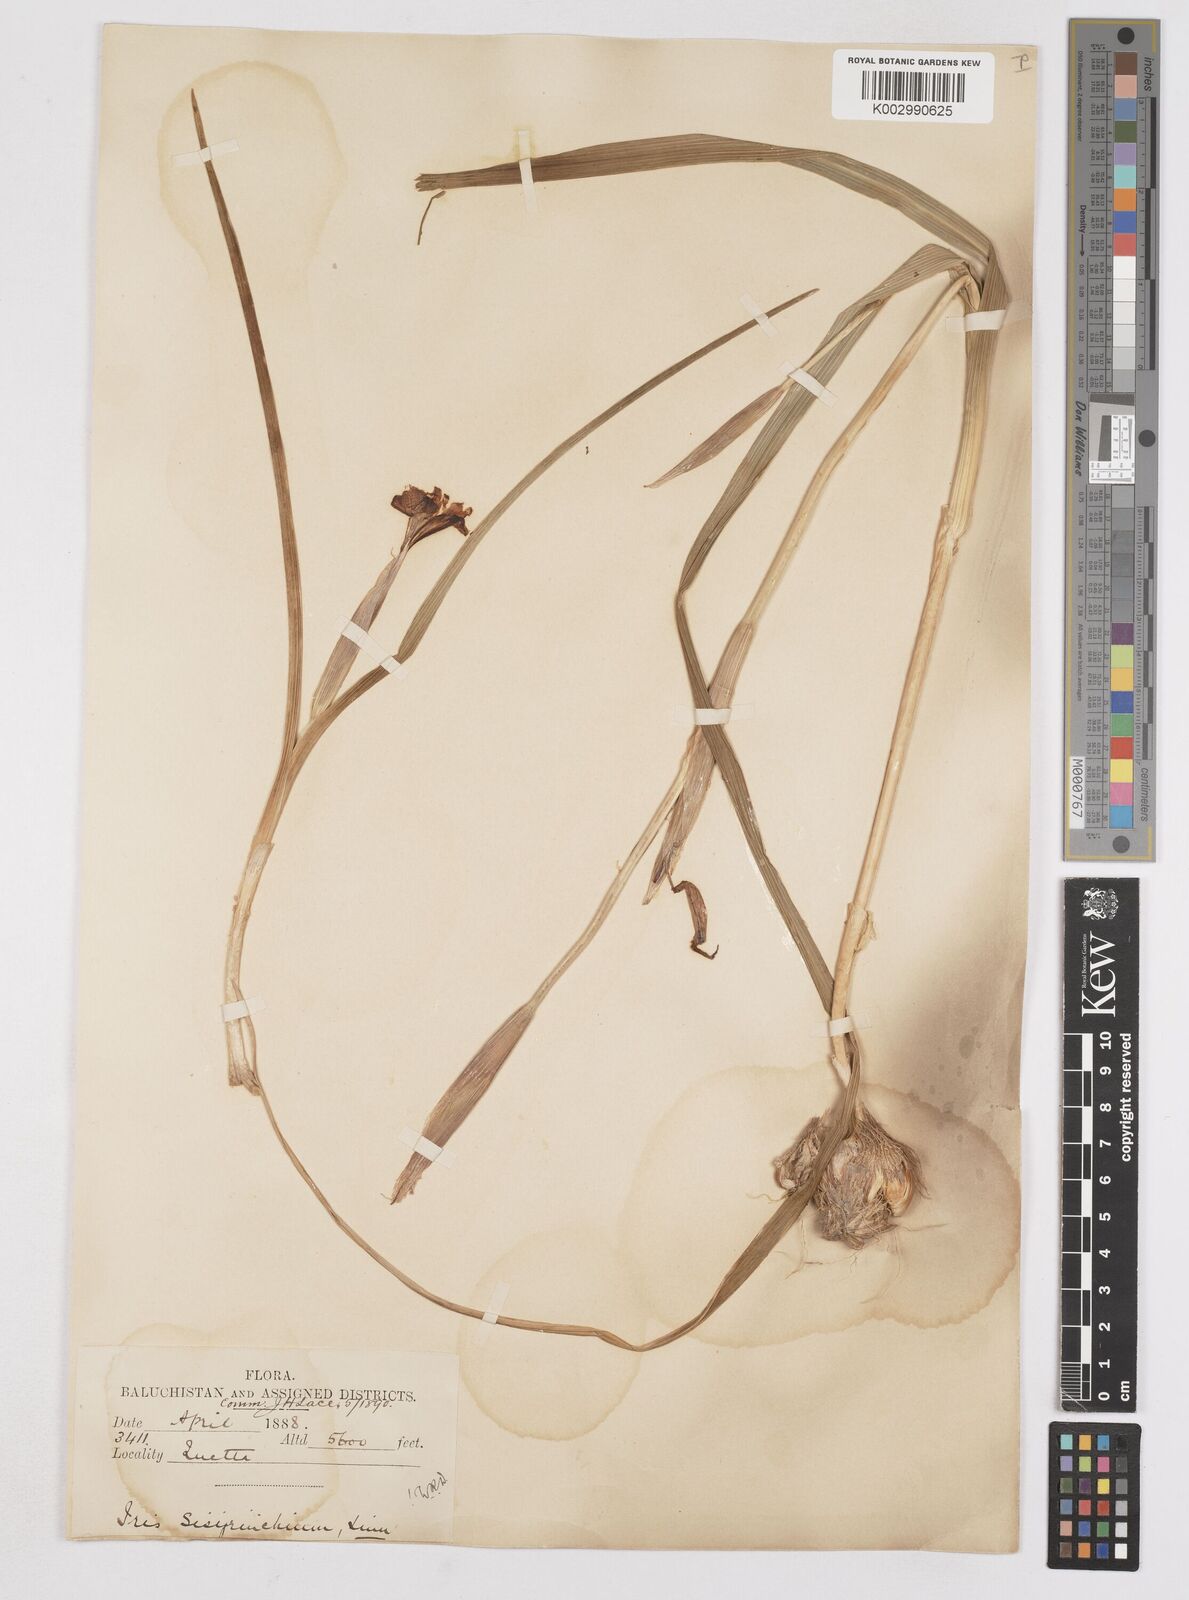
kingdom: Plantae
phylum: Tracheophyta
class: Liliopsida
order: Asparagales
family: Iridaceae
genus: Moraea
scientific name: Moraea sisyrinchium
